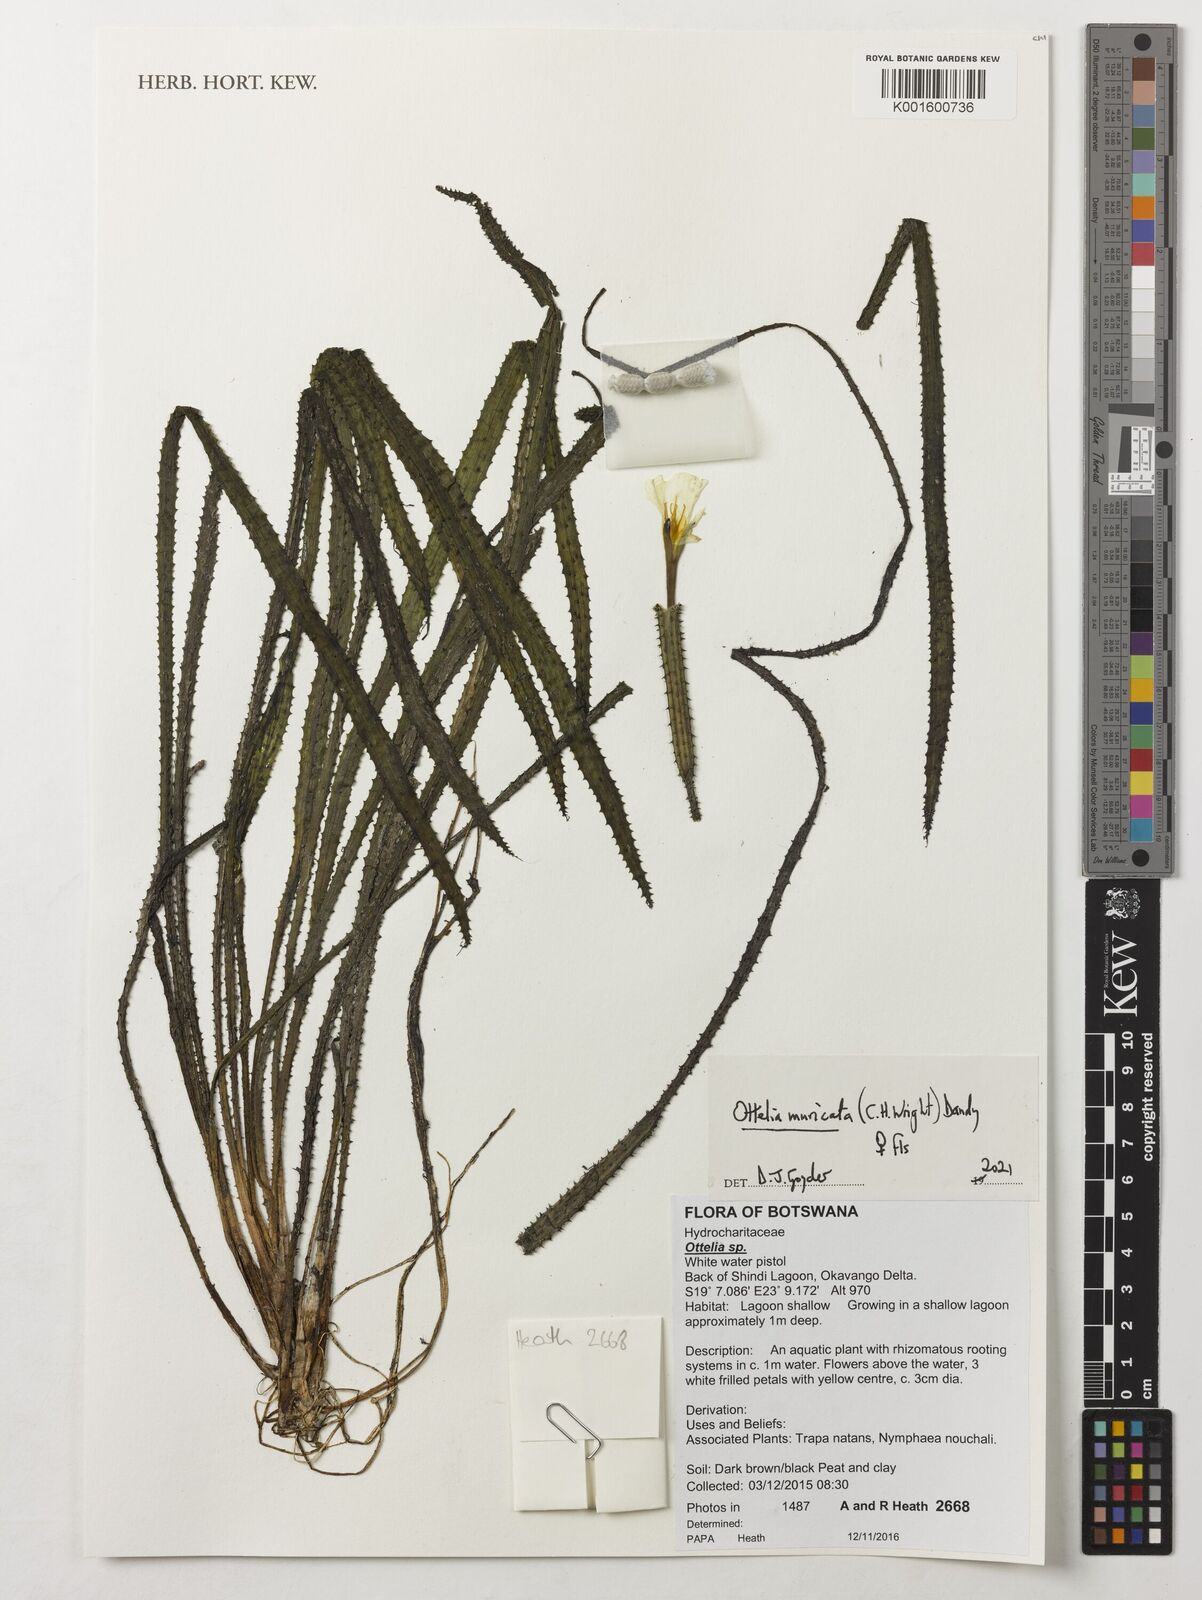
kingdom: Plantae
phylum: Tracheophyta
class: Liliopsida
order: Alismatales
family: Hydrocharitaceae
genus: Ottelia
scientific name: Ottelia
